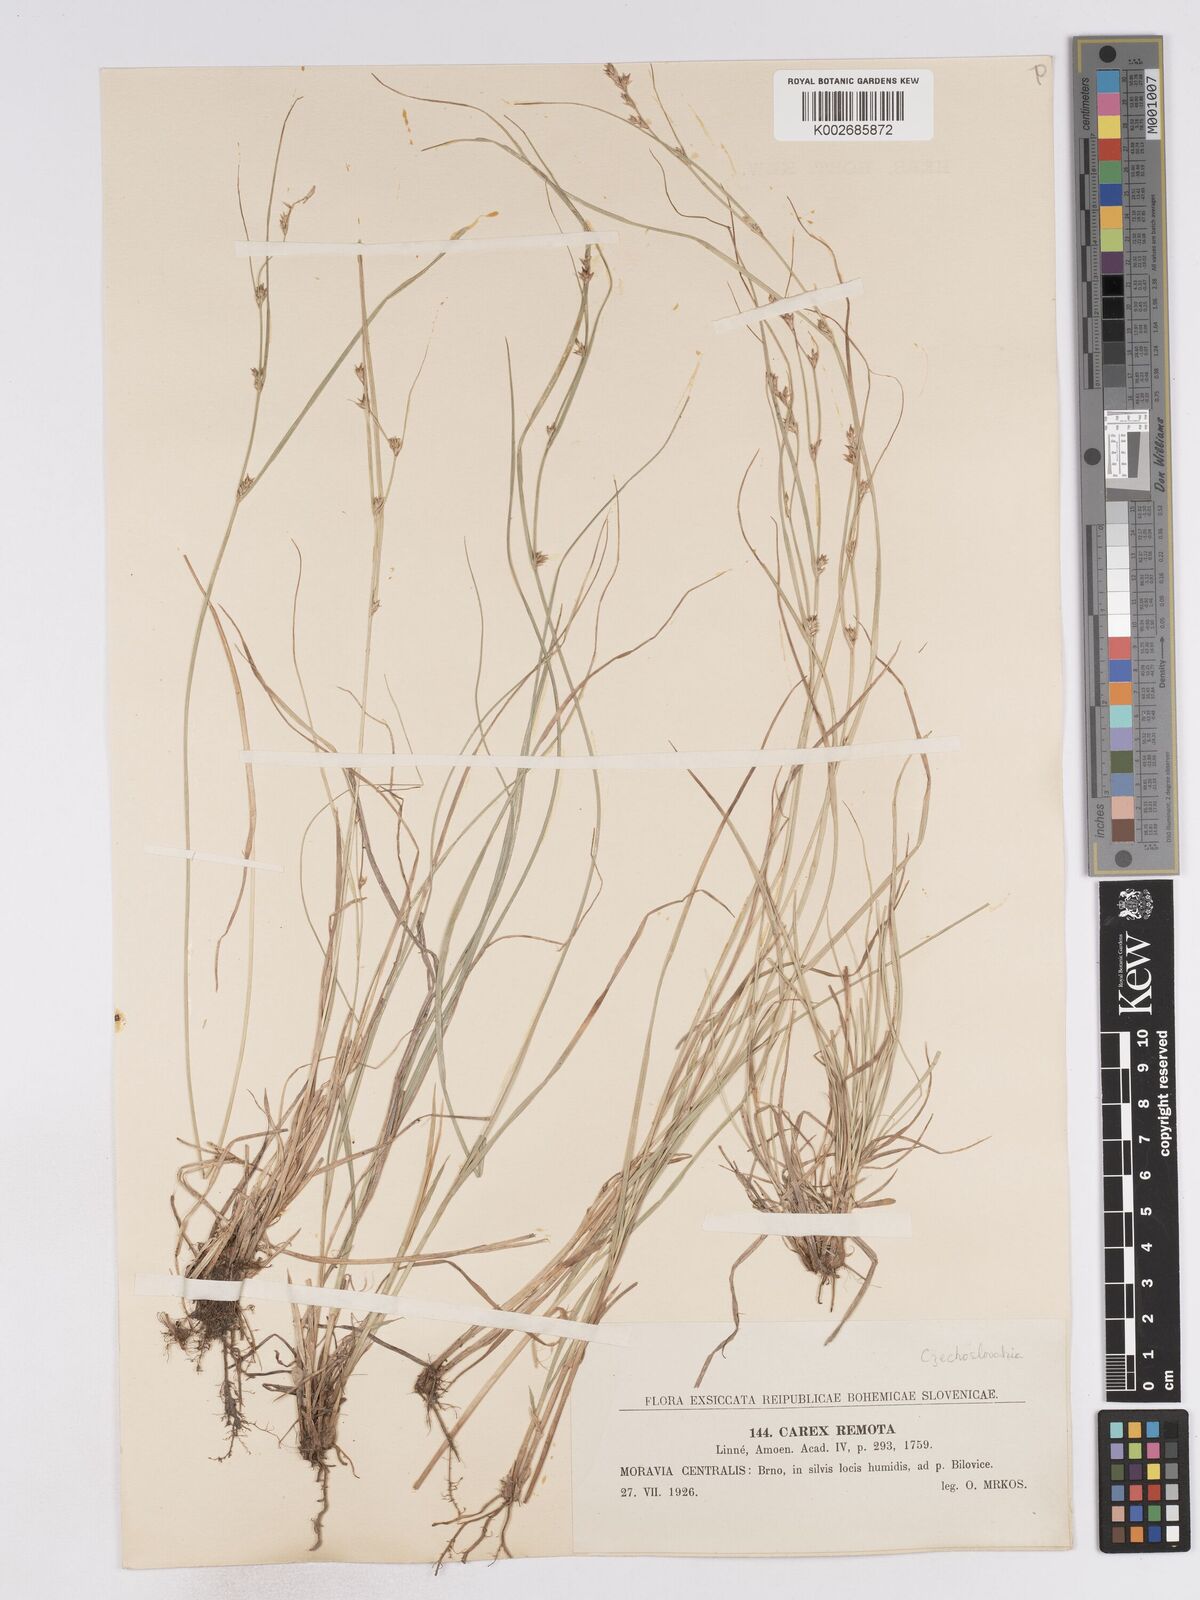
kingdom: Plantae
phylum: Tracheophyta
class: Liliopsida
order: Poales
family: Cyperaceae
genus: Carex
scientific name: Carex remota
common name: Remote sedge
